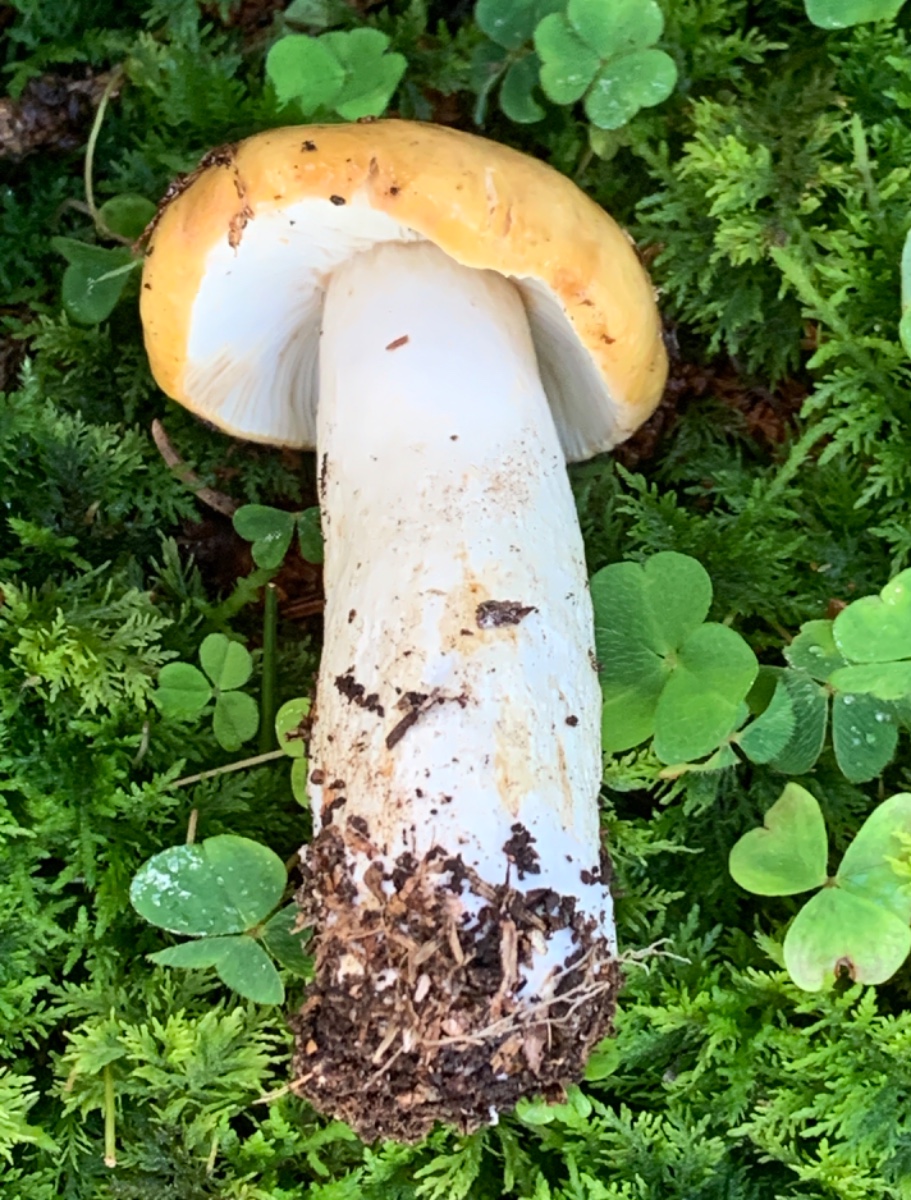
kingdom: Fungi
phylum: Basidiomycota
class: Agaricomycetes
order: Russulales
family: Russulaceae
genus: Russula
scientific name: Russula ochroleuca
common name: okkergul skørhat
